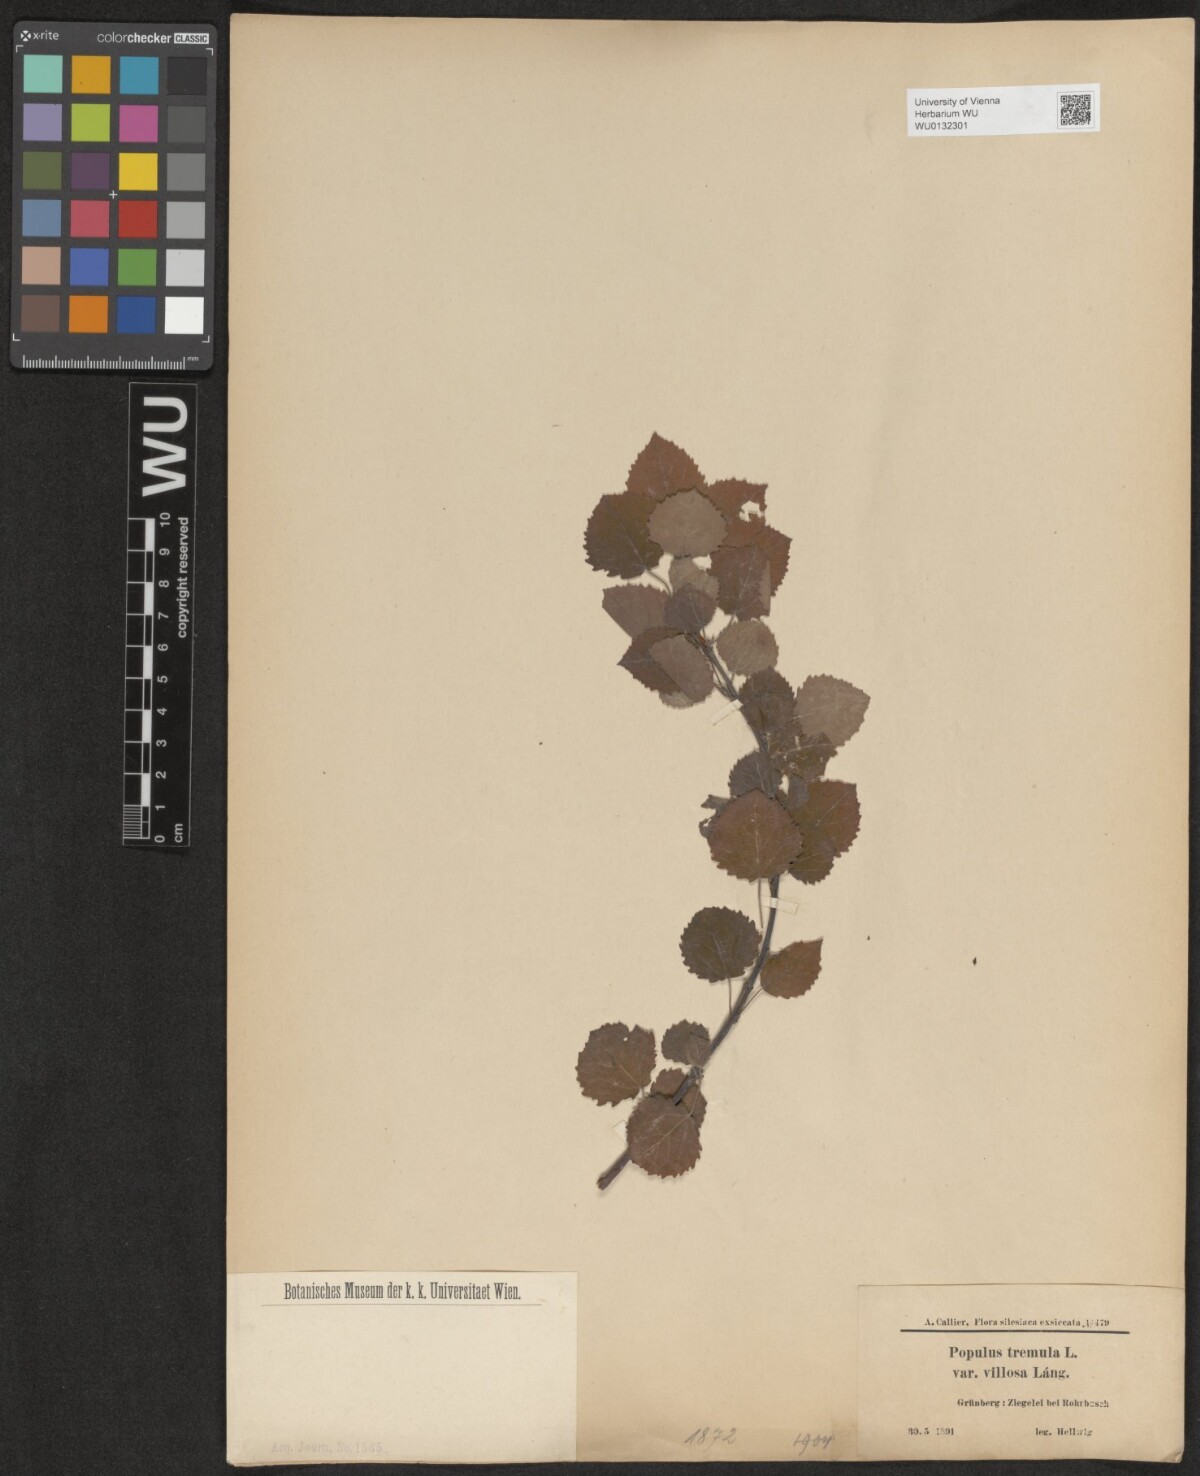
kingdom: Plantae
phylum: Tracheophyta
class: Magnoliopsida
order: Malpighiales
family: Salicaceae
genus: Populus
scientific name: Populus tremula
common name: European aspen
